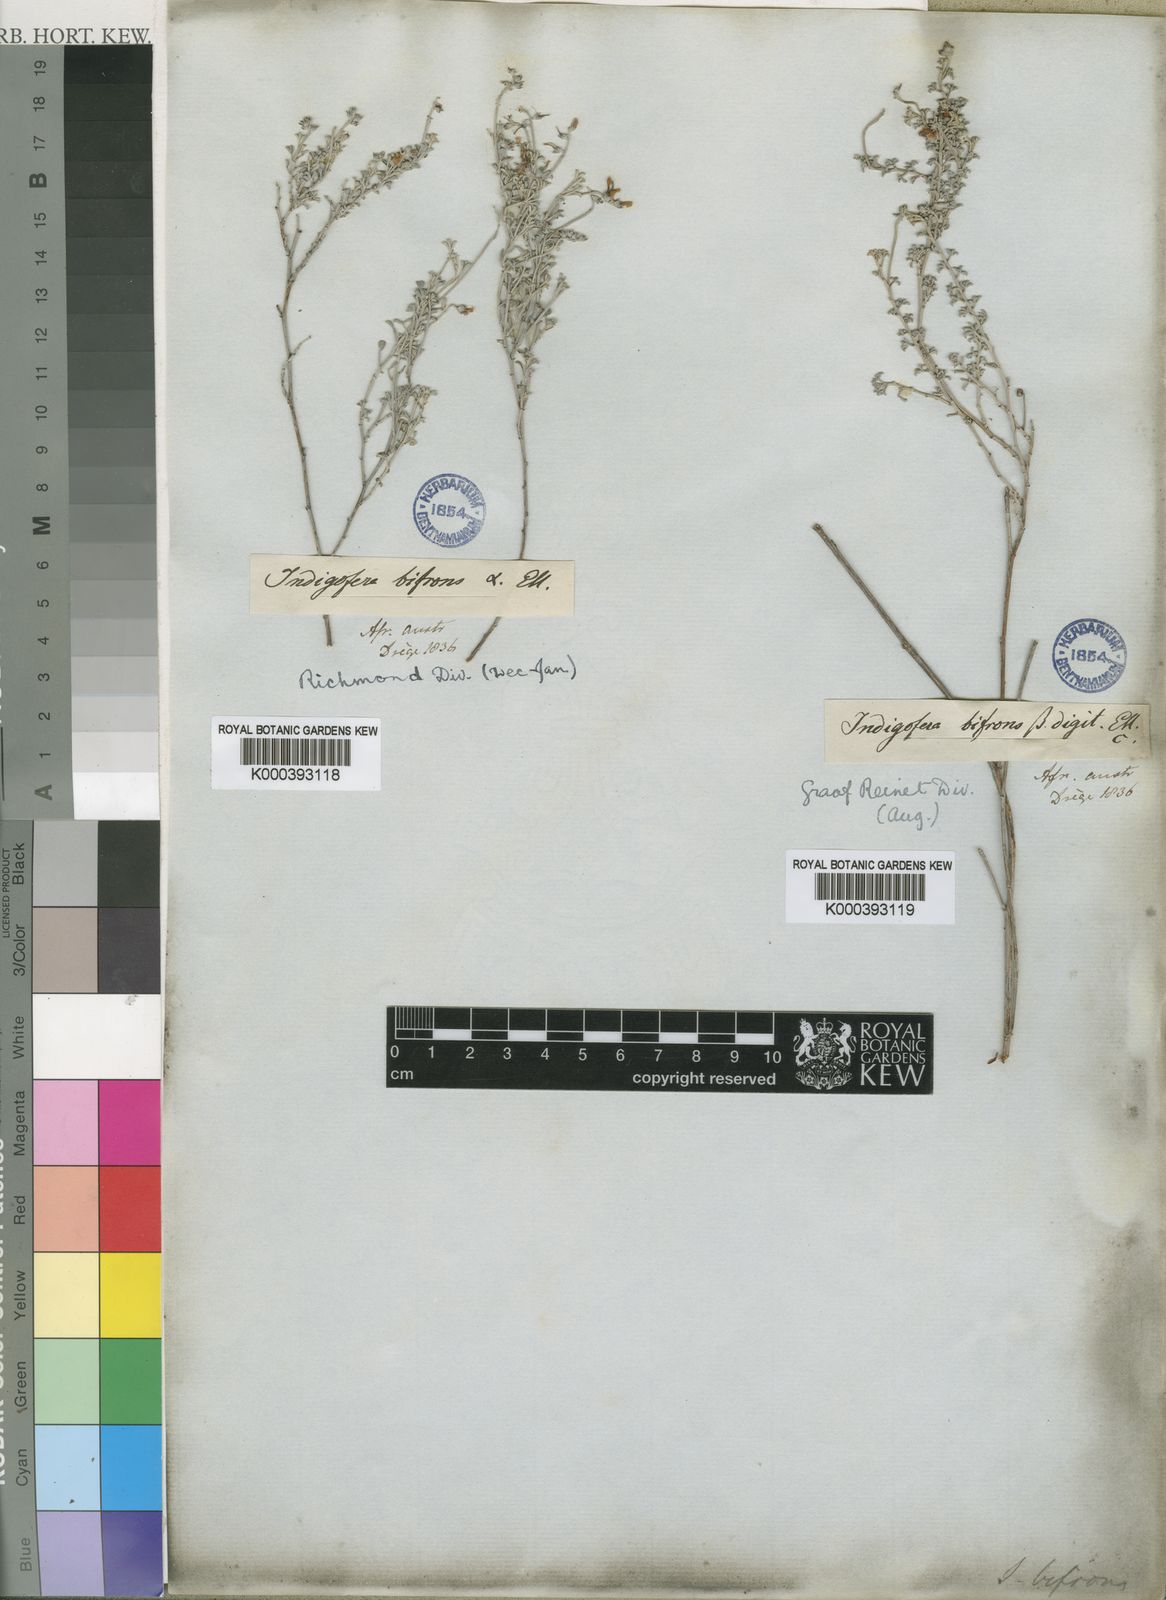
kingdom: Plantae
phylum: Tracheophyta
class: Magnoliopsida
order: Fabales
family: Fabaceae
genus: Indigofera
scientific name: Indigofera burchellii
